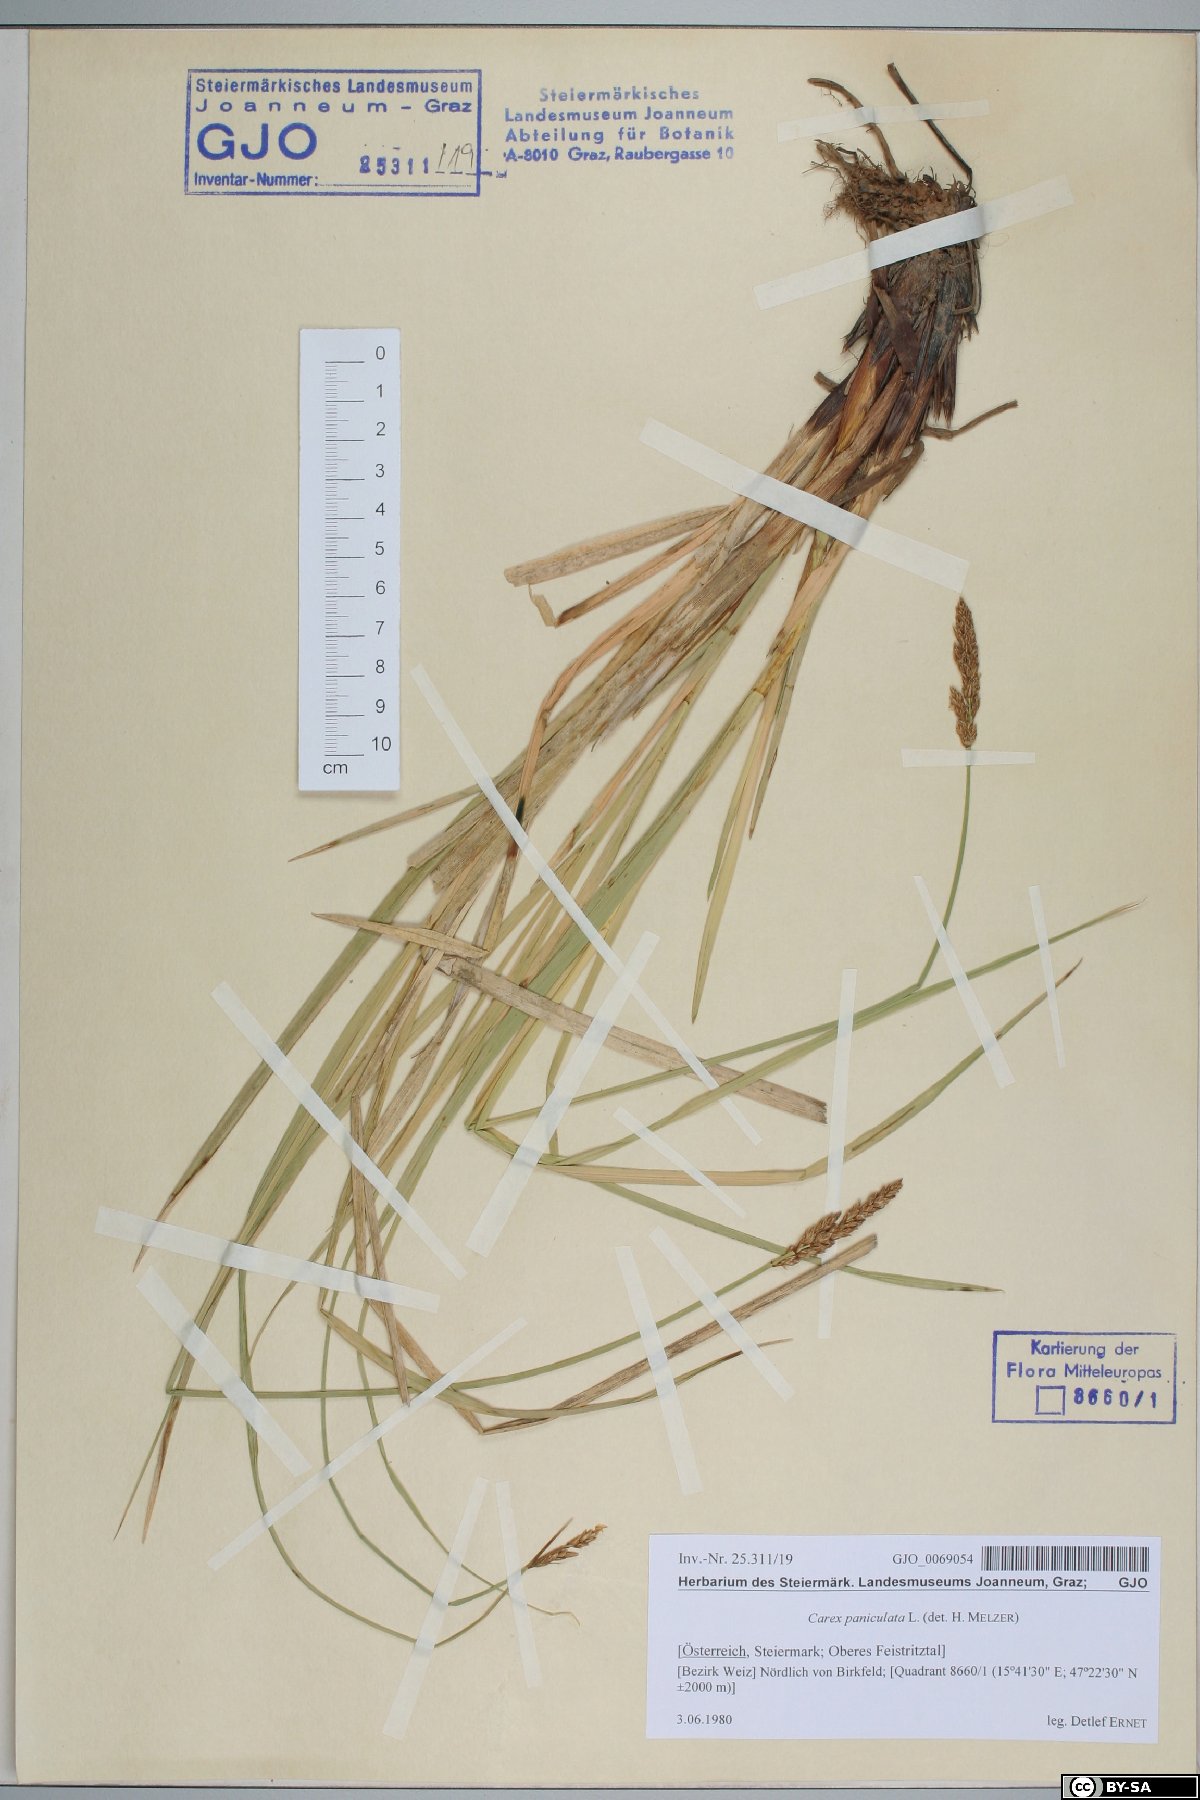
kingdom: Plantae
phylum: Tracheophyta
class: Liliopsida
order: Poales
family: Cyperaceae
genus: Carex
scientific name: Carex paniculata
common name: Greater tussock-sedge
